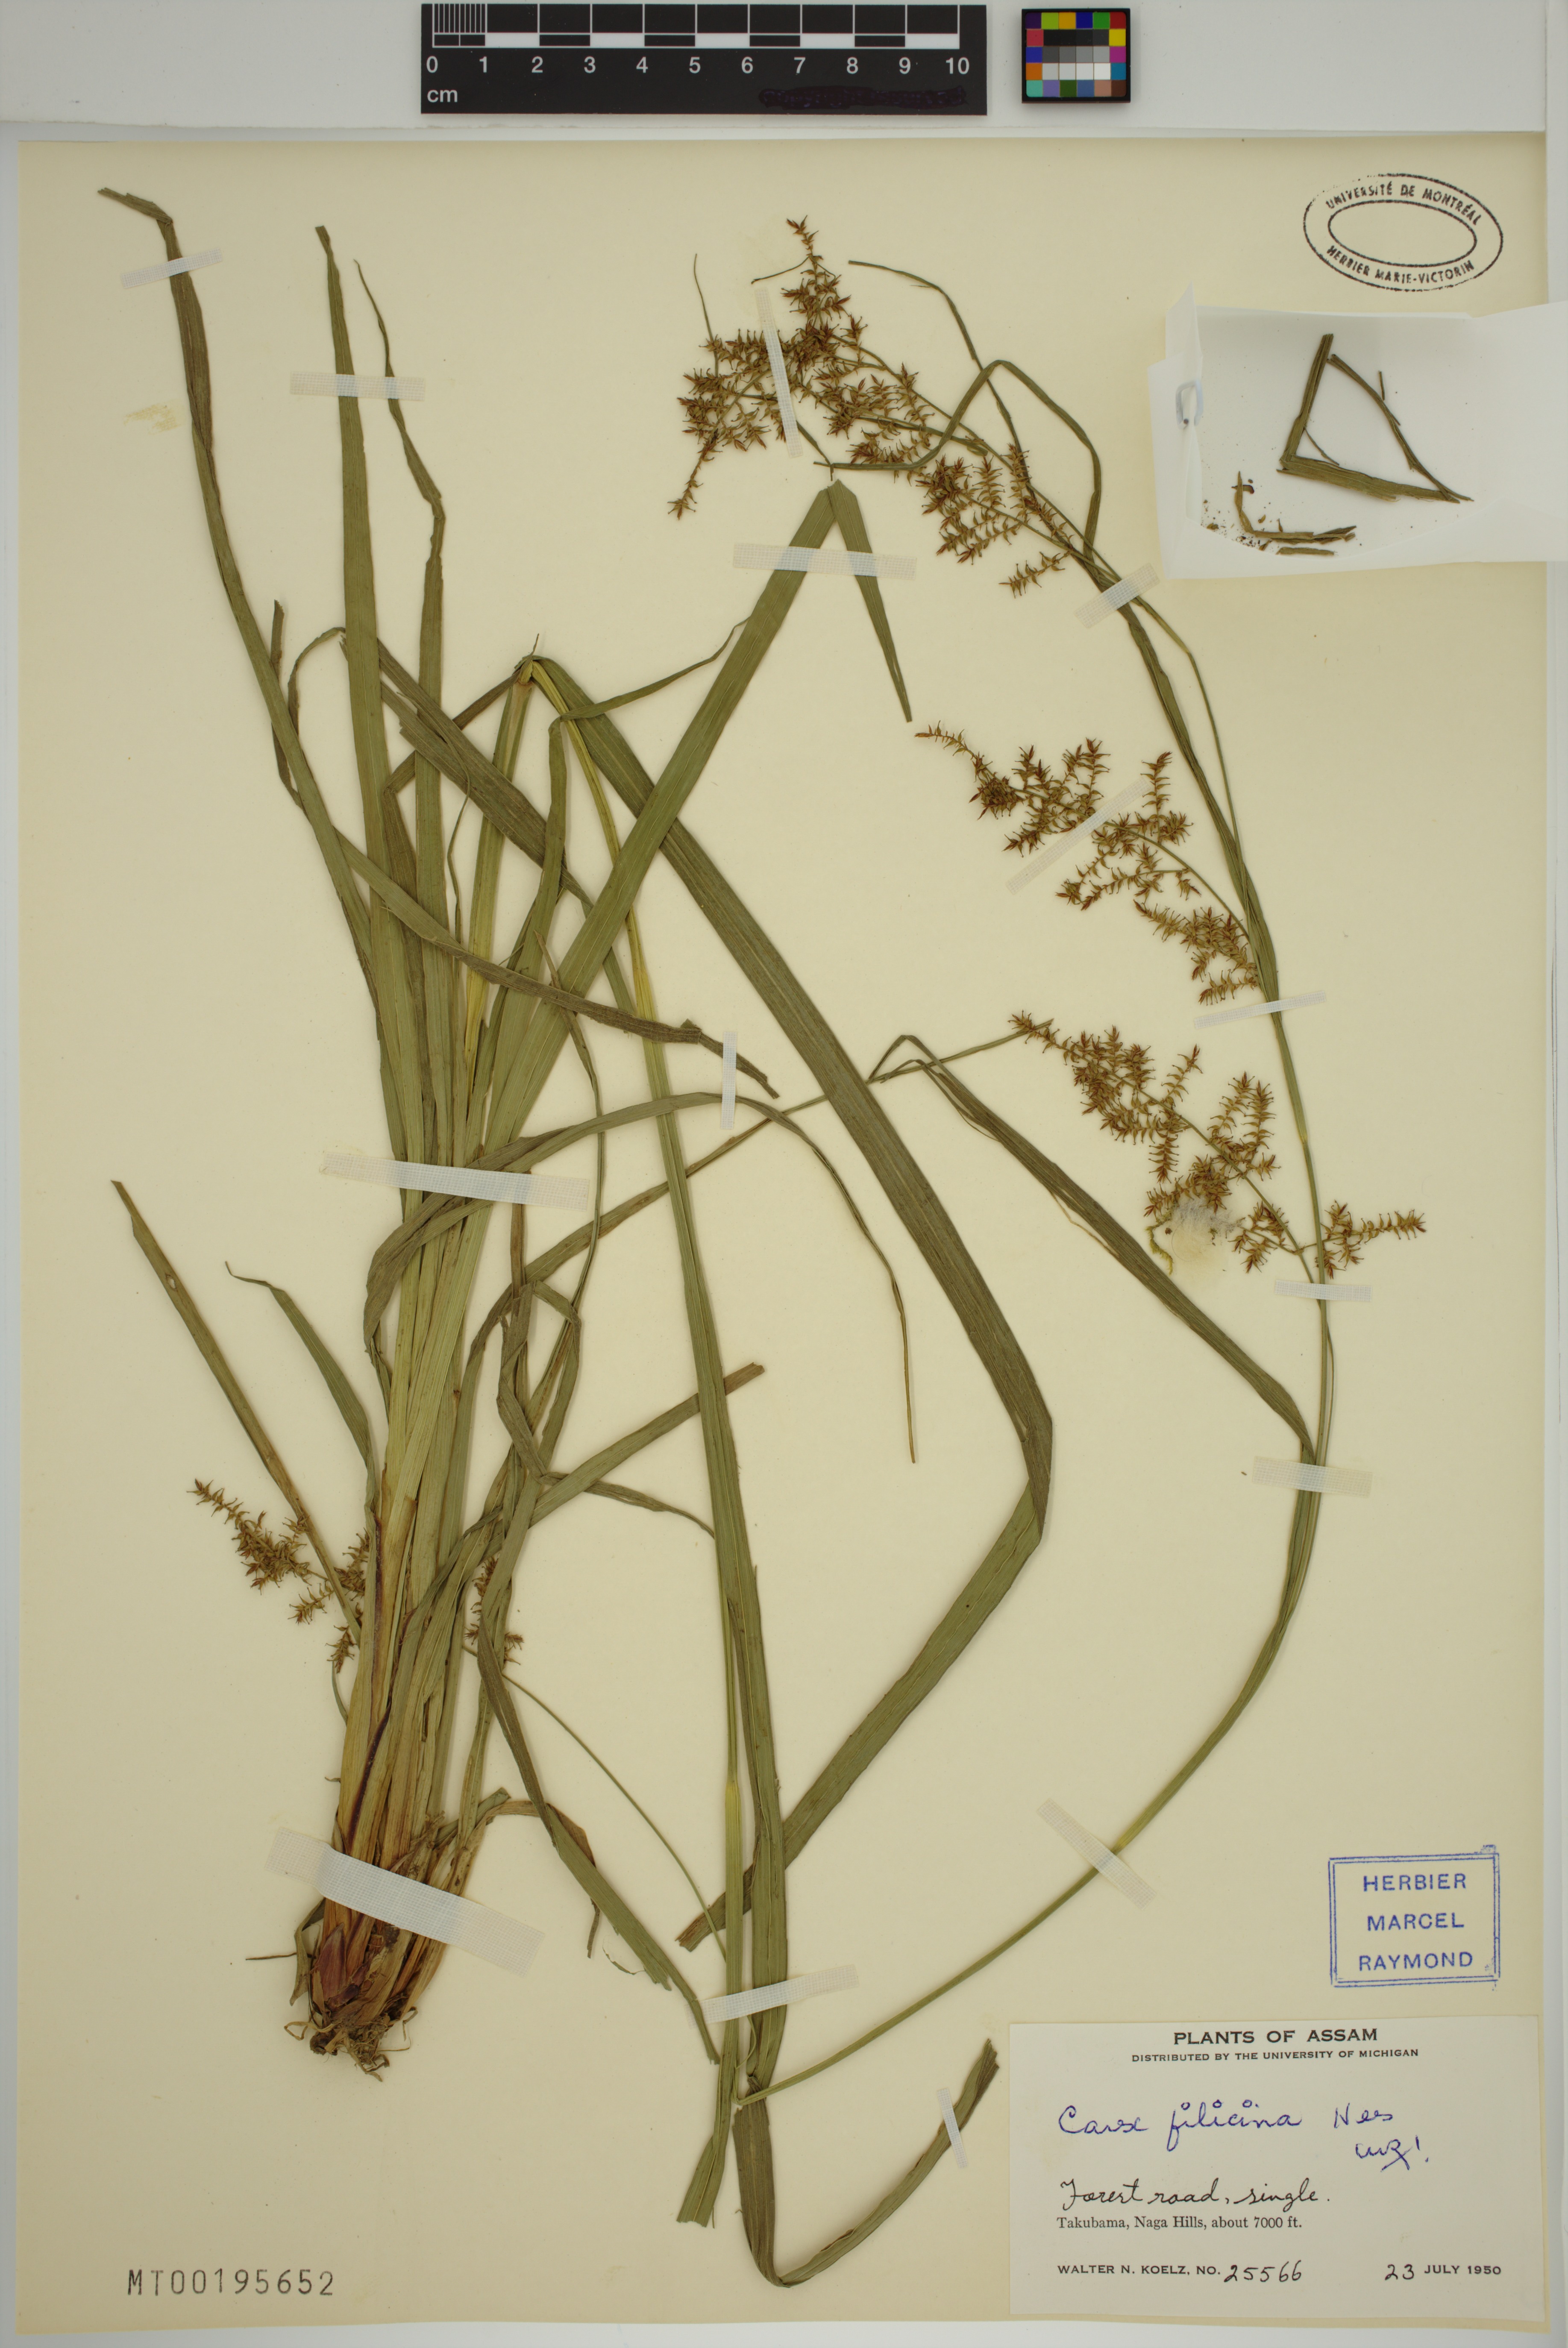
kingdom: Plantae
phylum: Tracheophyta
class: Liliopsida
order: Poales
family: Cyperaceae
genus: Carex
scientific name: Carex filicina
